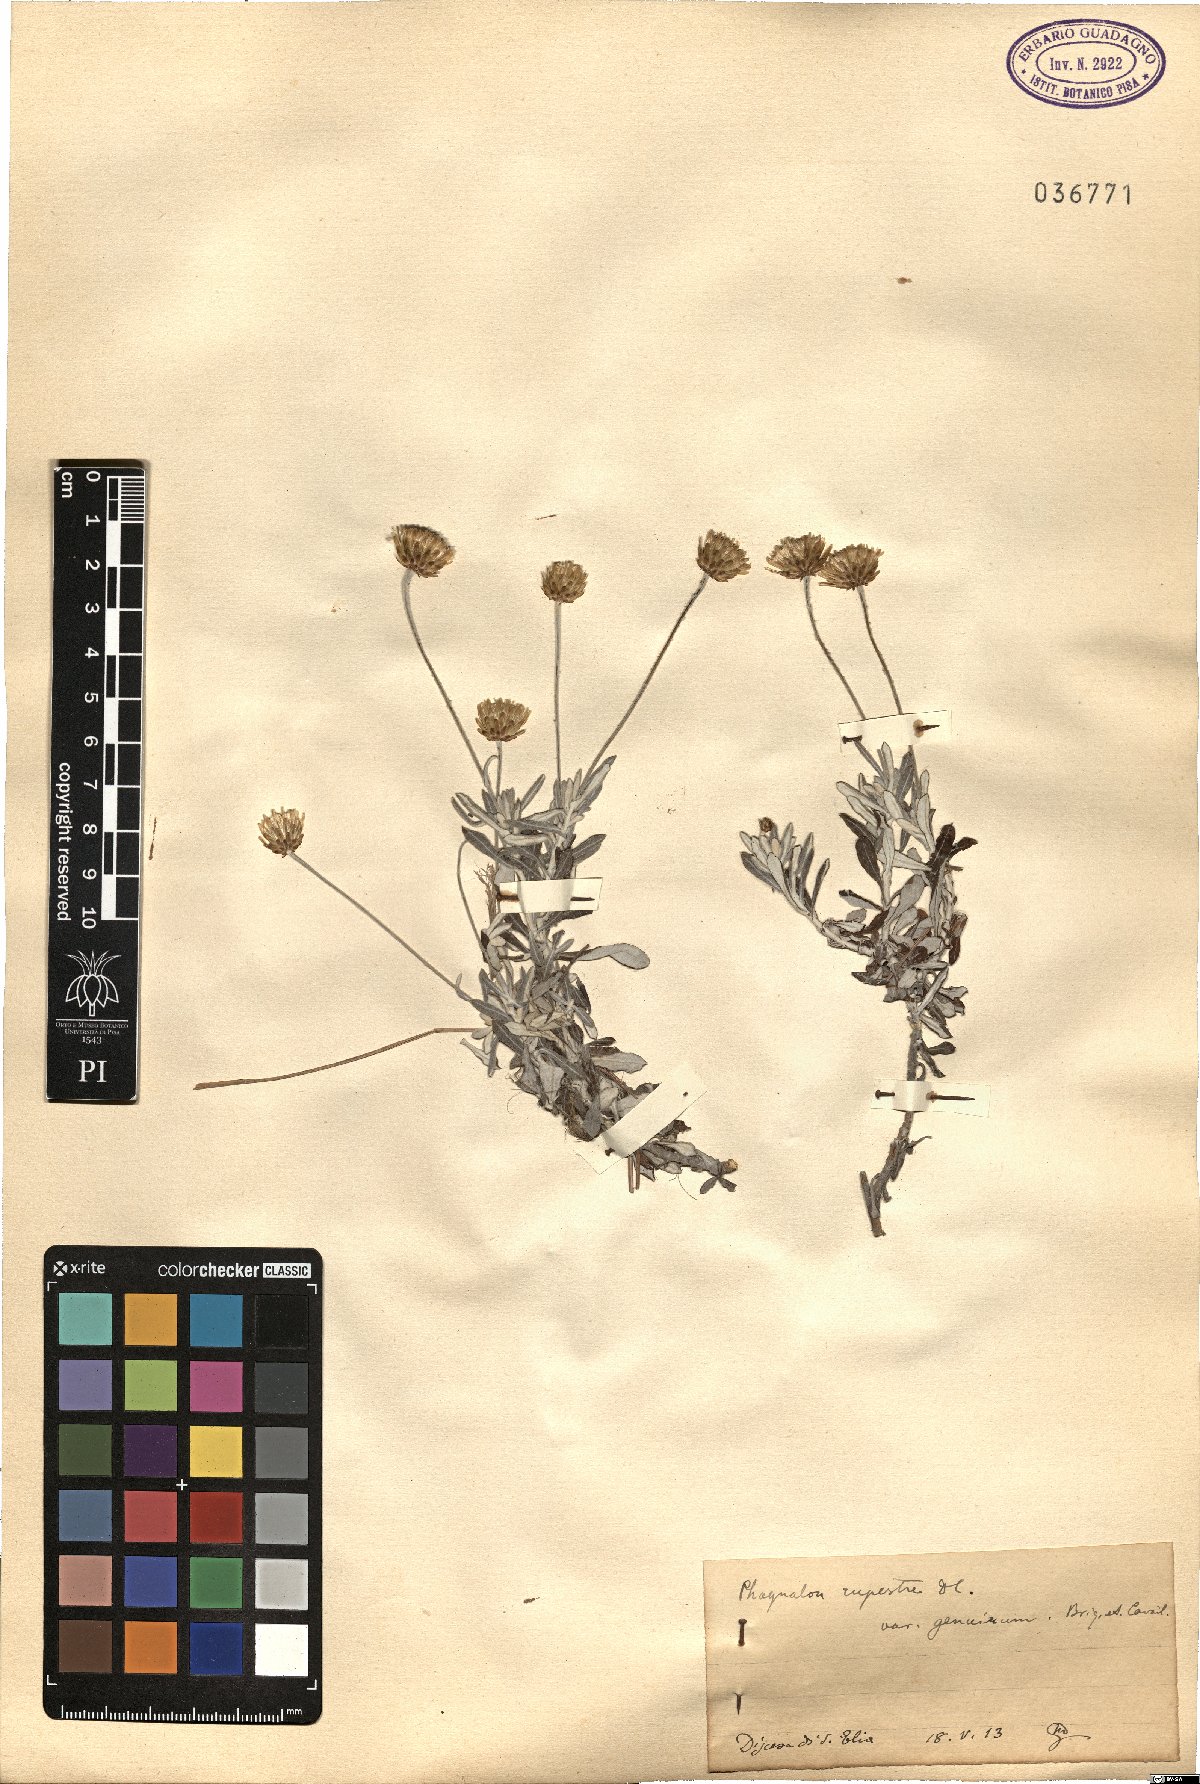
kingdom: Plantae
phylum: Tracheophyta
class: Magnoliopsida
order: Asterales
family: Asteraceae
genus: Phagnalon
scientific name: Phagnalon rupestre
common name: Rock phagnalon
